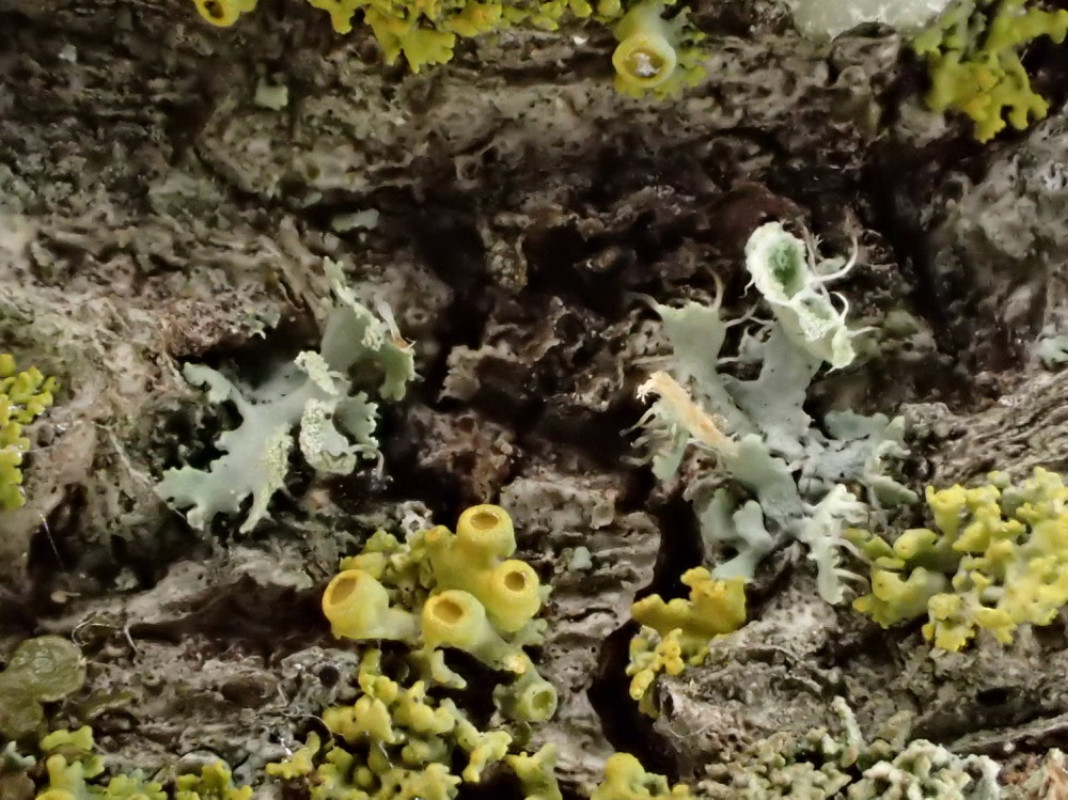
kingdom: Fungi
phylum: Ascomycota
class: Lecanoromycetes
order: Caliciales
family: Physciaceae
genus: Physcia
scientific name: Physcia tenella
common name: spæd rosetlav
